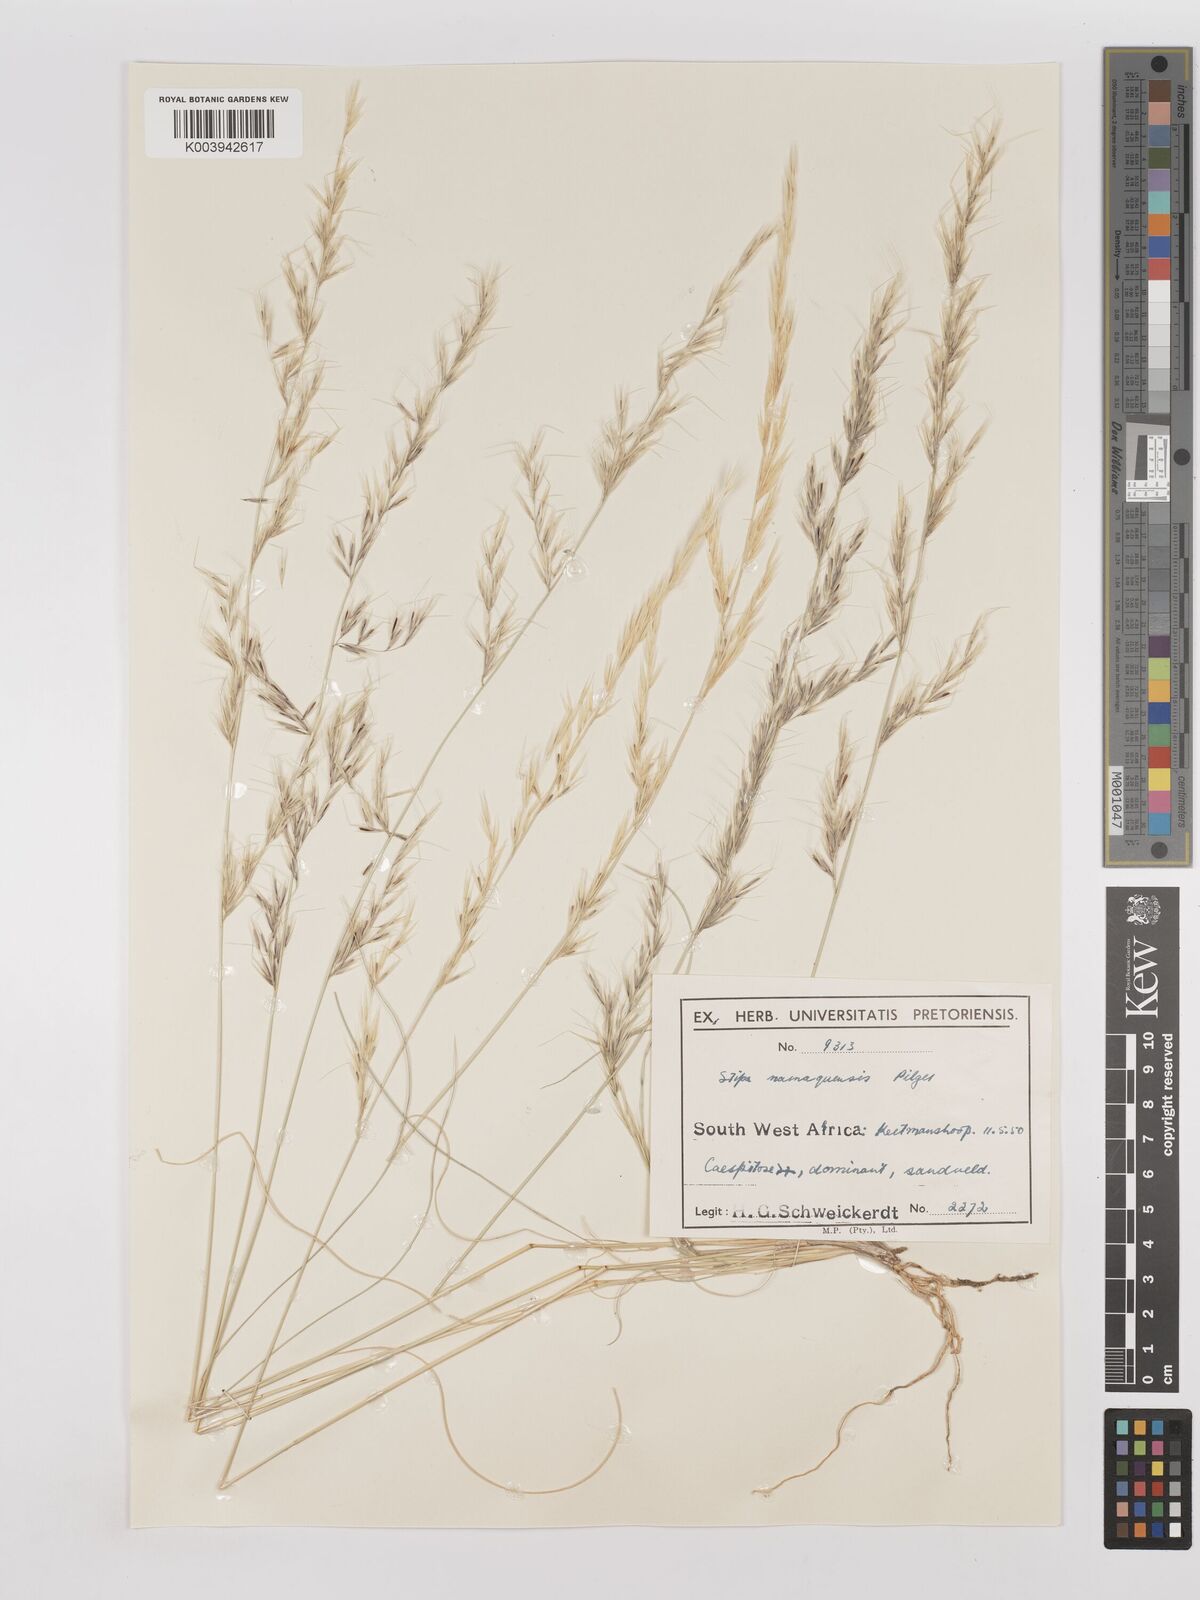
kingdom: Plantae
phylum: Tracheophyta
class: Liliopsida
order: Poales
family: Poaceae
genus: Stipagrostis
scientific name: Stipagrostis anomala
